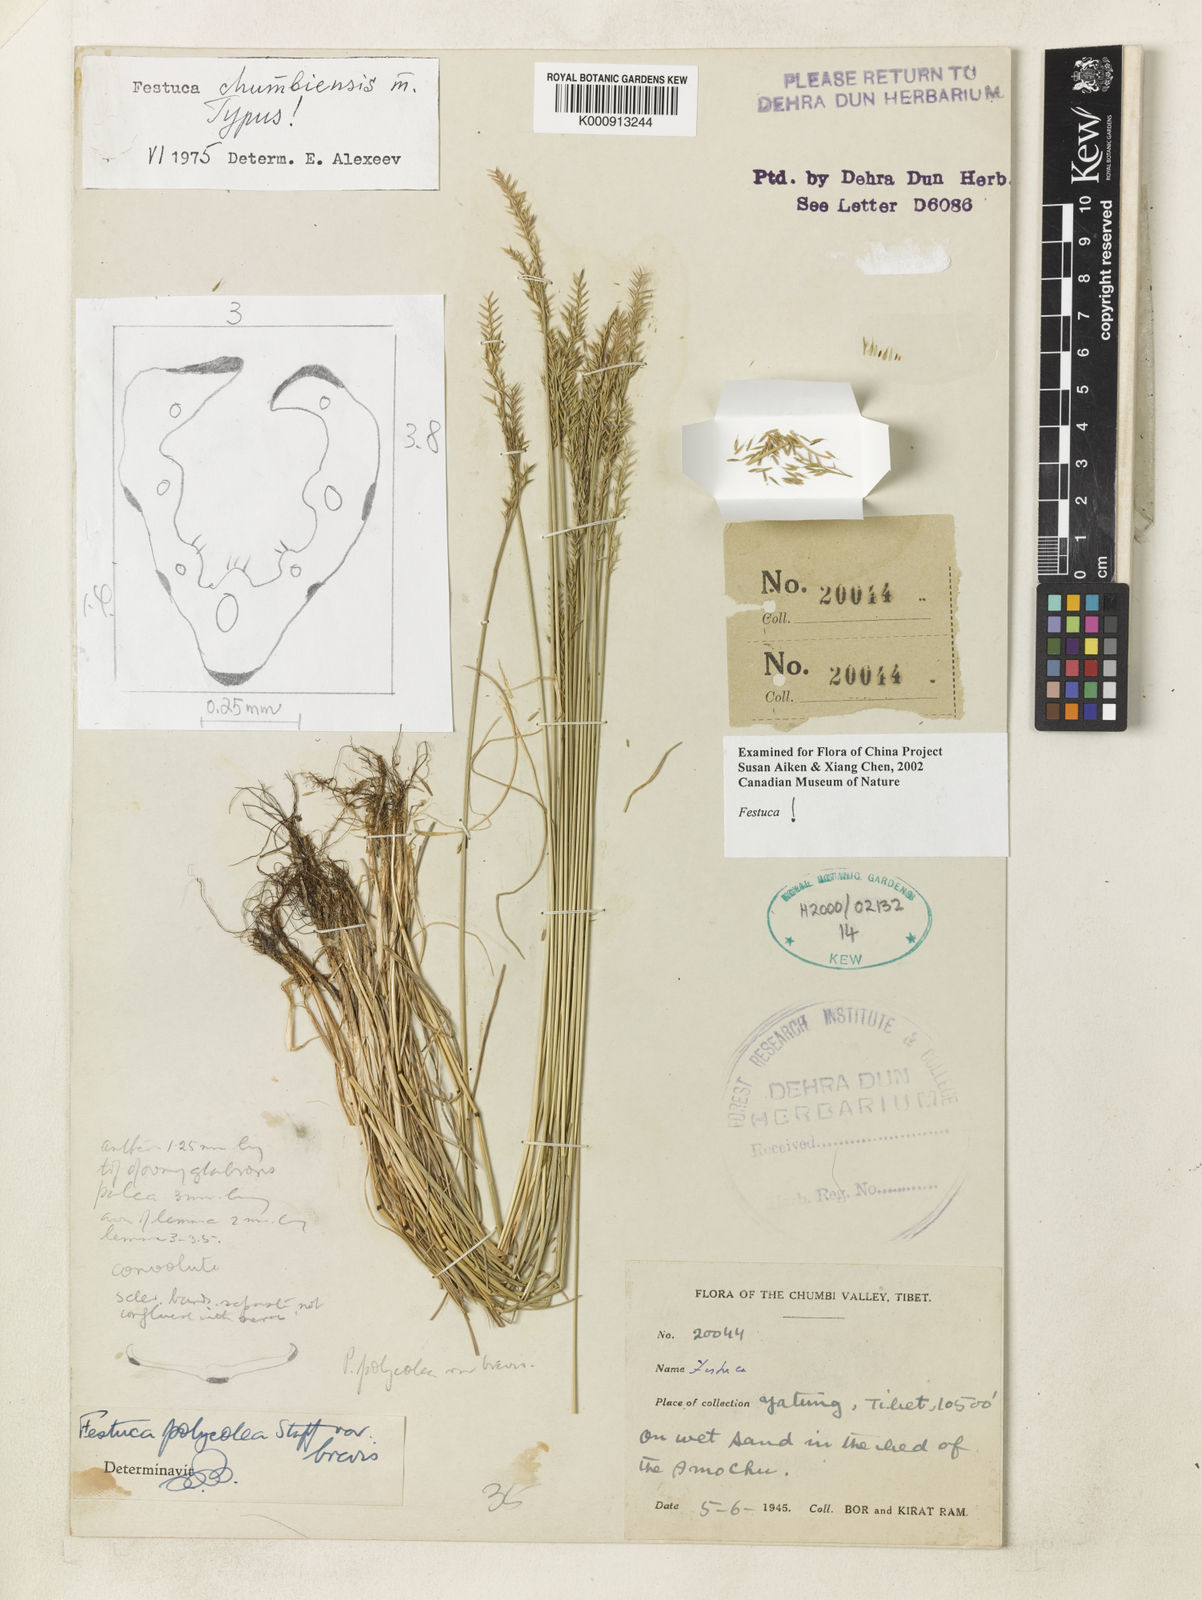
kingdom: Plantae
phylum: Tracheophyta
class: Liliopsida
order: Poales
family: Poaceae
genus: Festuca
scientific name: Festuca chumbiensis
